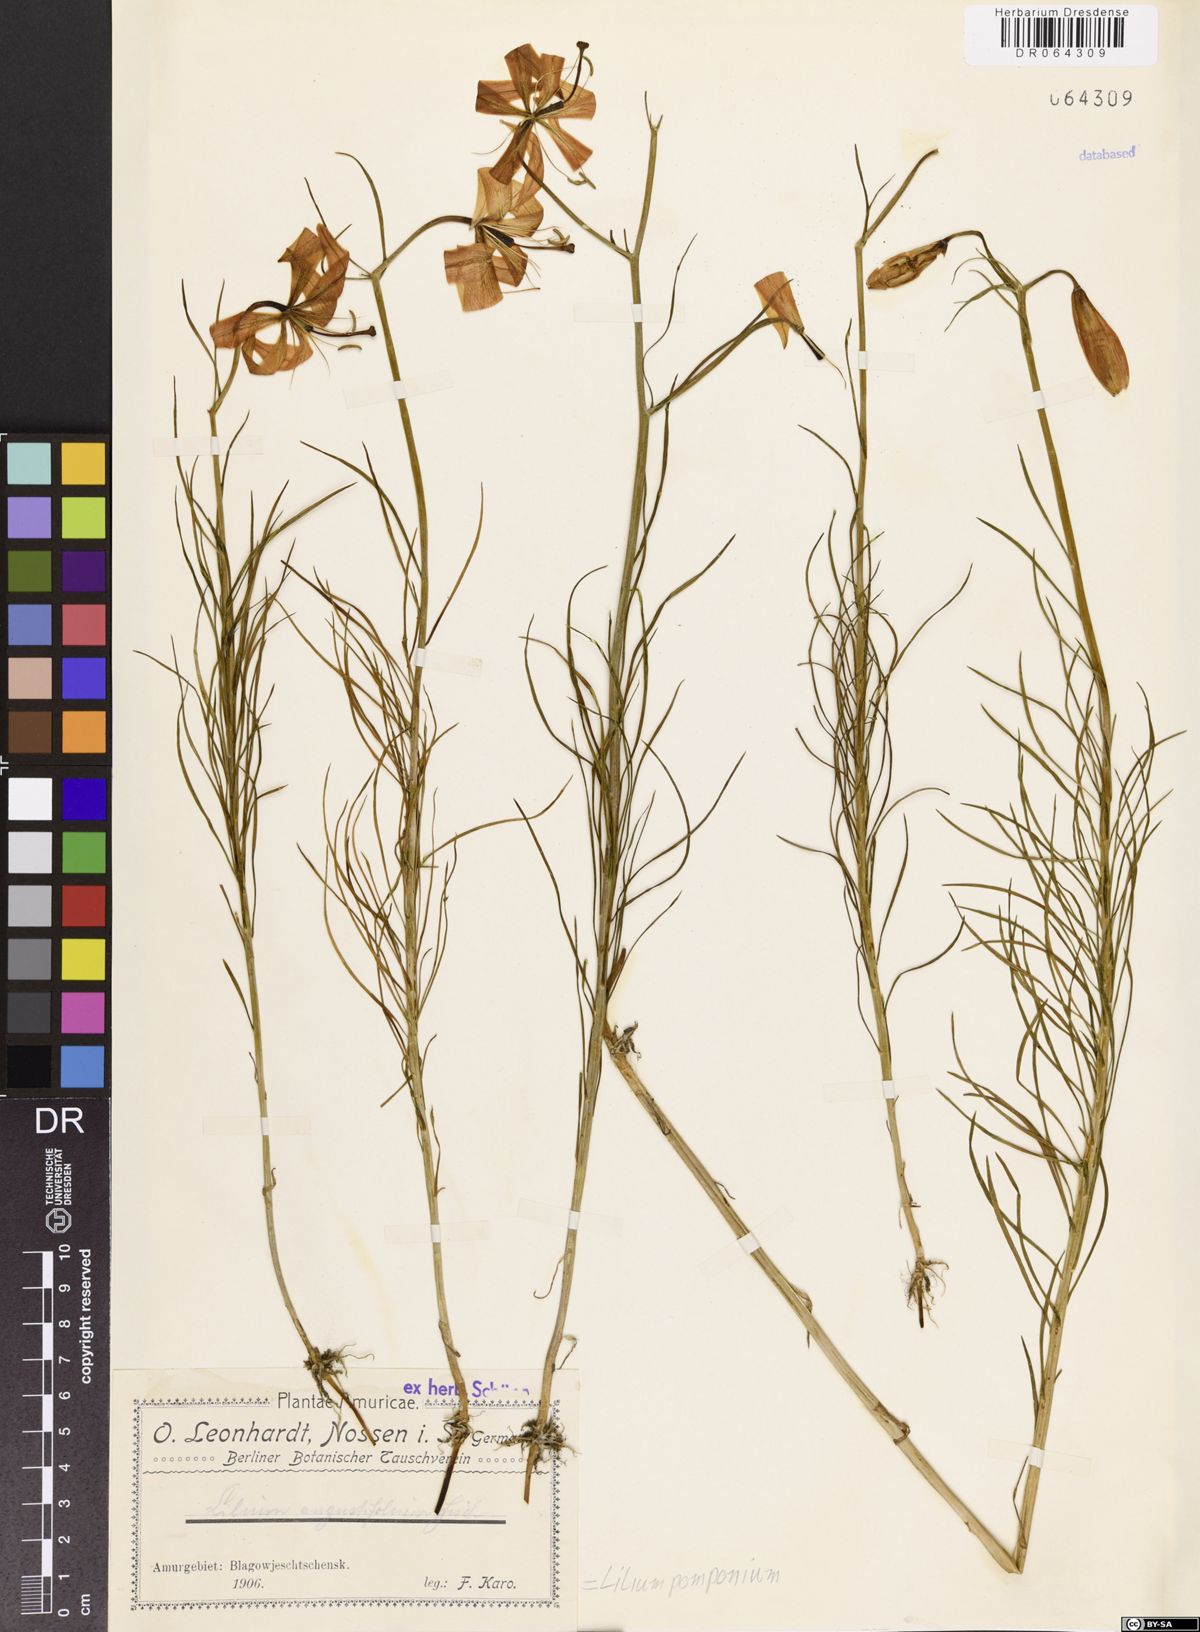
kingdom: Plantae
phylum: Tracheophyta
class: Liliopsida
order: Liliales
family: Liliaceae
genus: Lilium
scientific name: Lilium pomponium
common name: Minor turk's-cap lily
